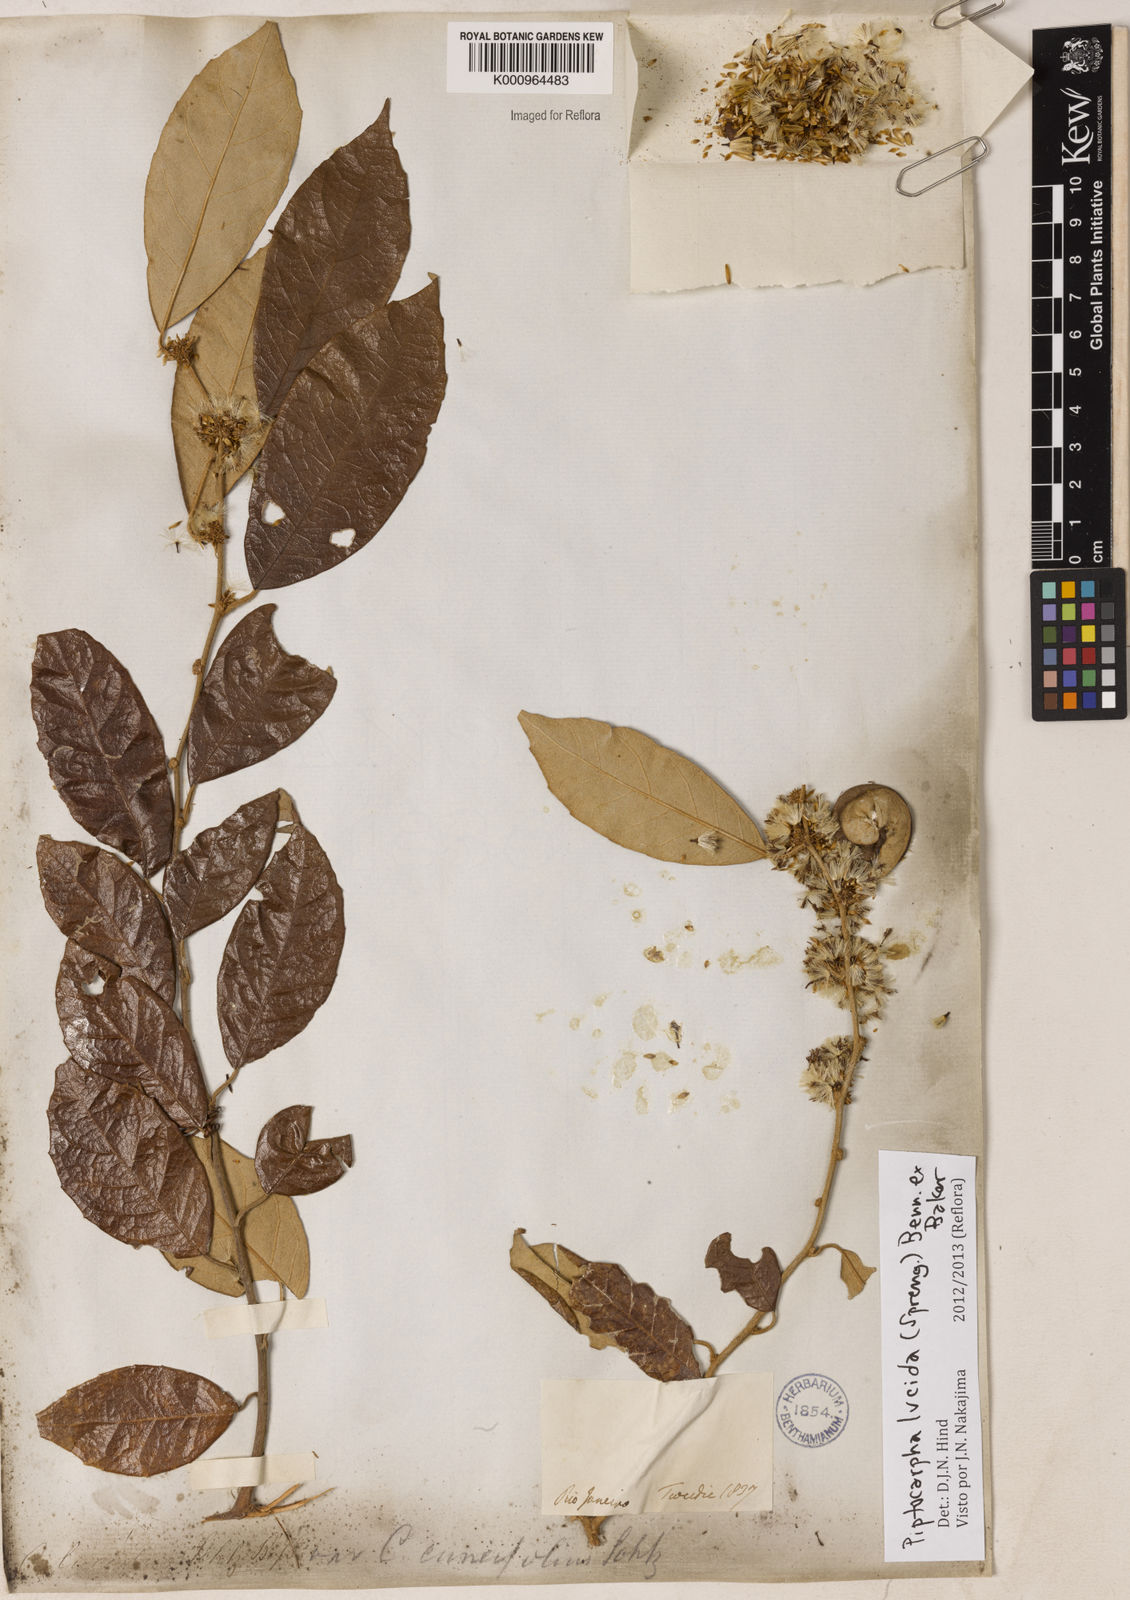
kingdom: Plantae
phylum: Tracheophyta
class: Magnoliopsida
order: Asterales
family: Asteraceae
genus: Piptocarpha
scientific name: Piptocarpha lucida
